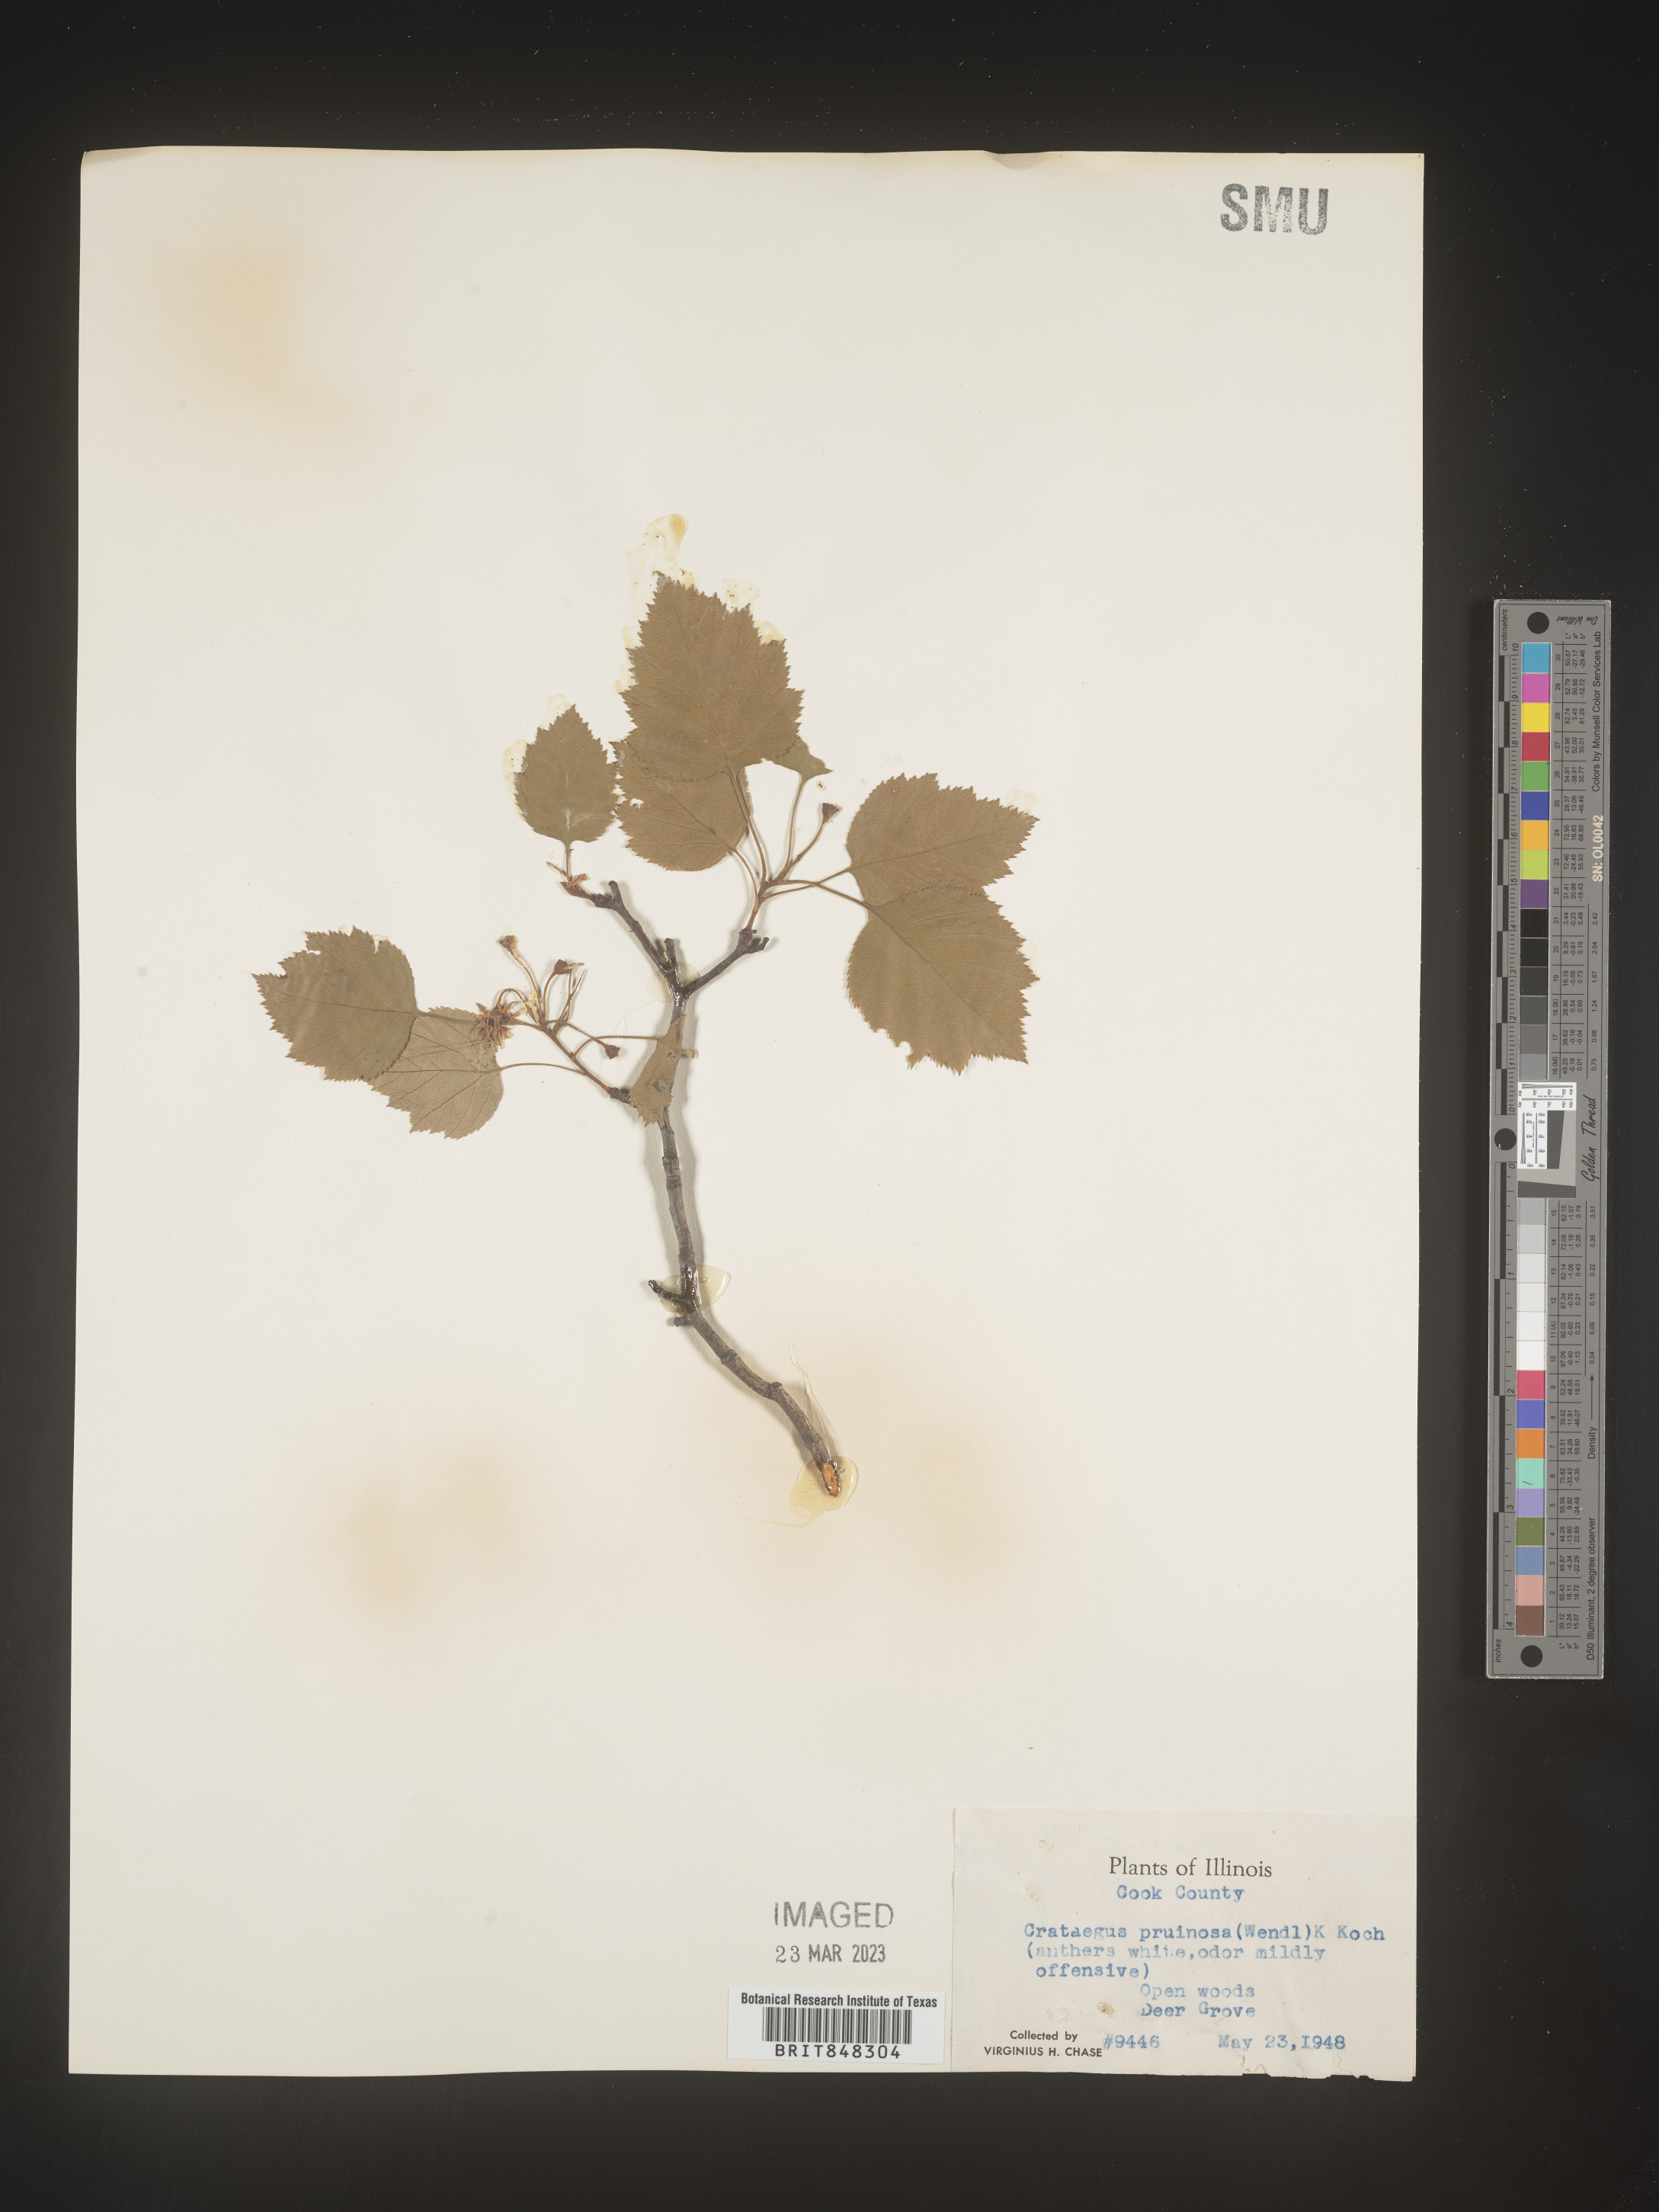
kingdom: Plantae
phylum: Tracheophyta
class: Magnoliopsida
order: Rosales
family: Rosaceae
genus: Crataegus
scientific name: Crataegus pruinosa
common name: Waxy-fruit hawthorn
